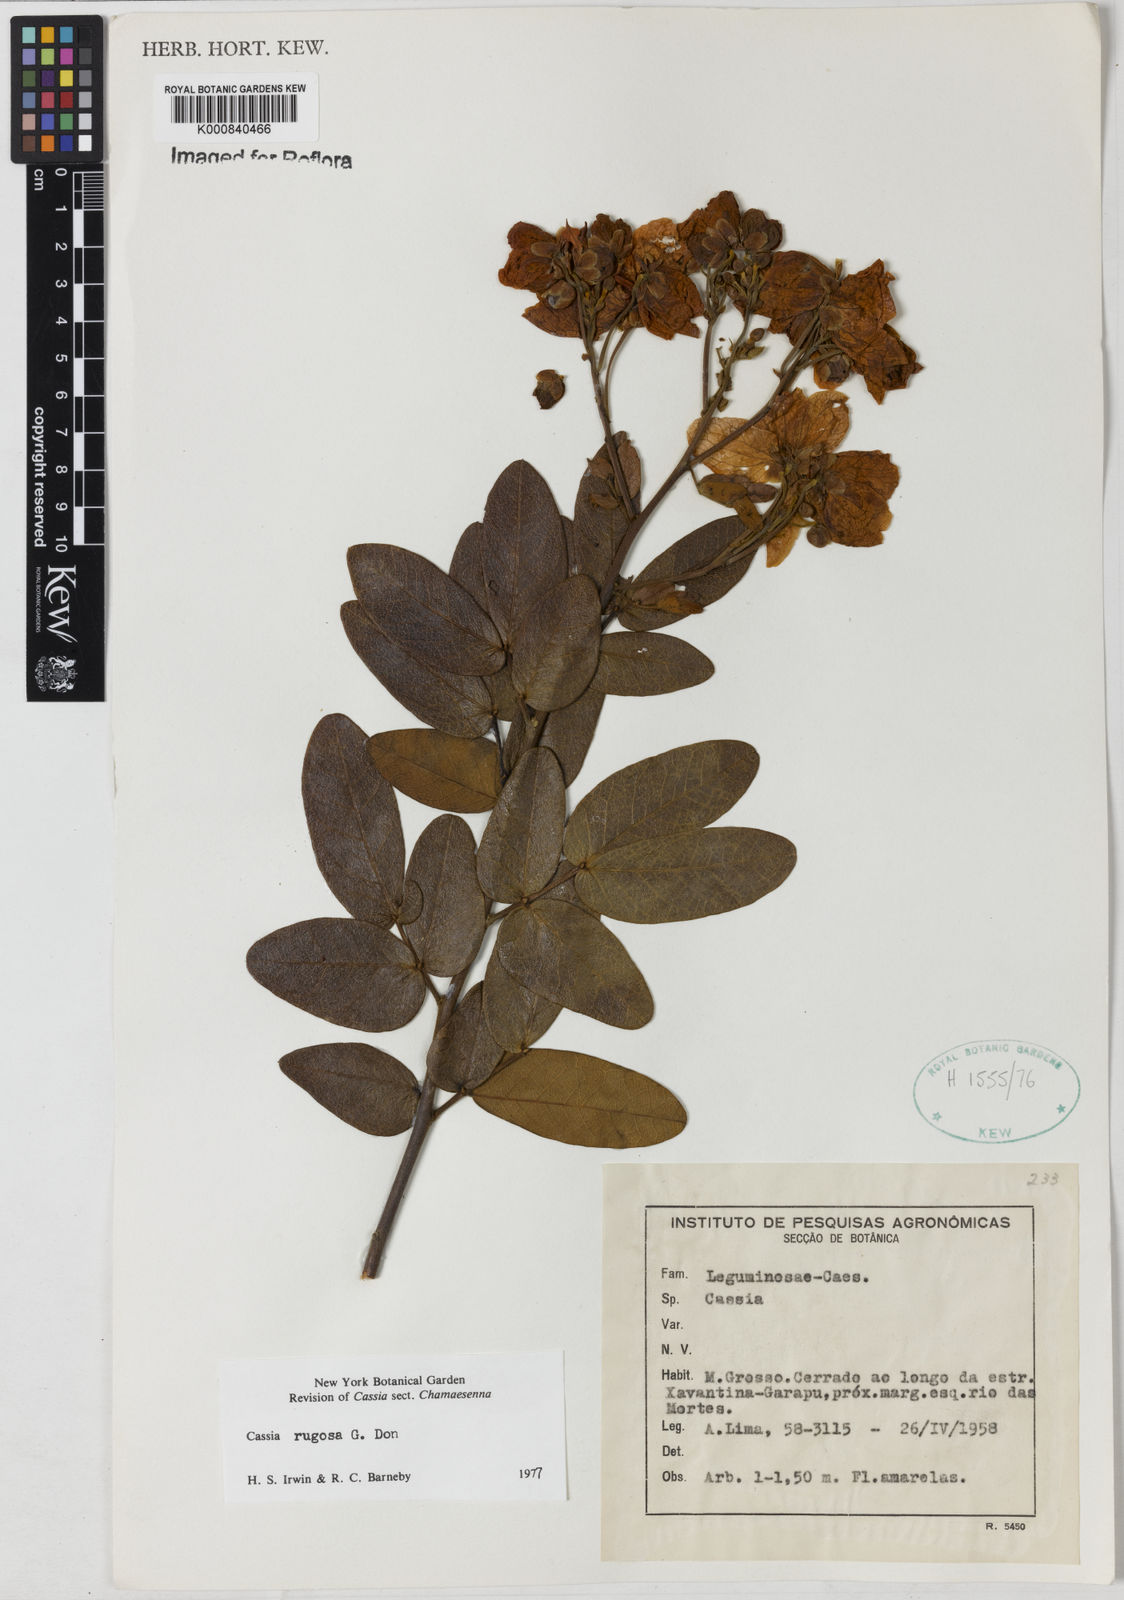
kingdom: Plantae
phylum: Tracheophyta
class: Magnoliopsida
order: Fabales
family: Fabaceae
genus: Senna
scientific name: Senna rugosa
